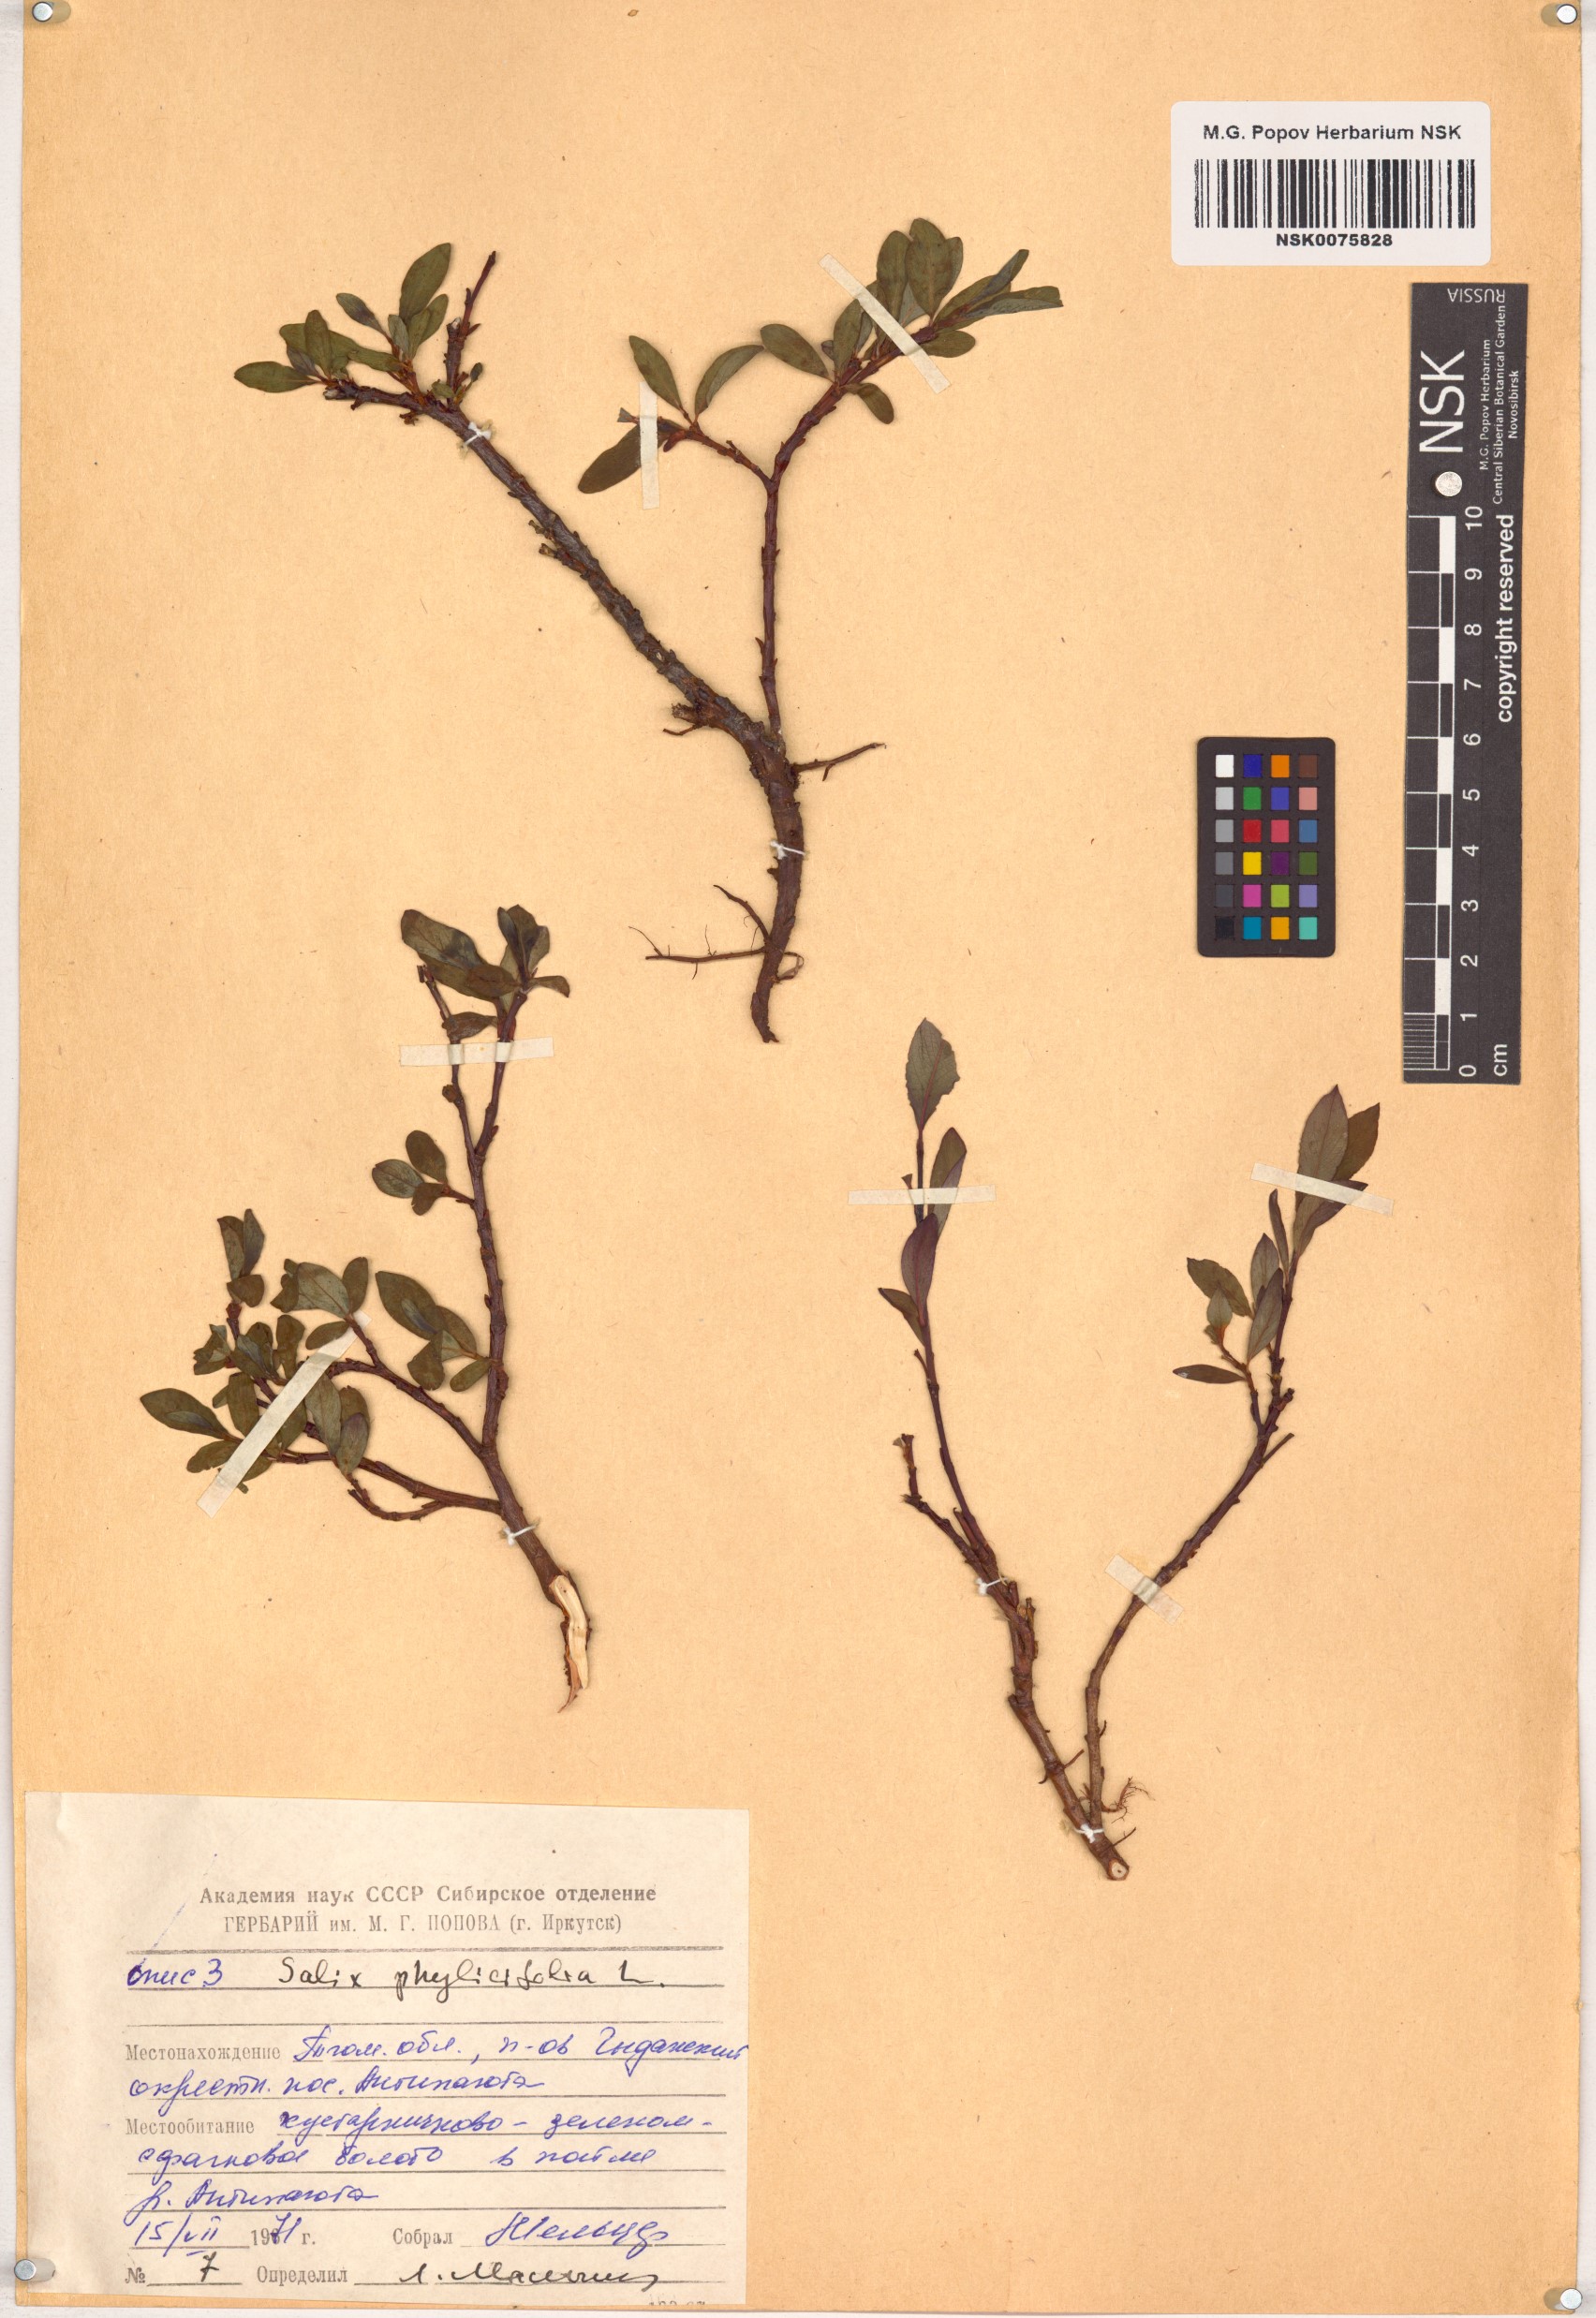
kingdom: Plantae
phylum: Tracheophyta
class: Magnoliopsida
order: Malpighiales
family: Salicaceae
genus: Salix
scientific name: Salix phylicifolia
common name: Tea-leaved willow
